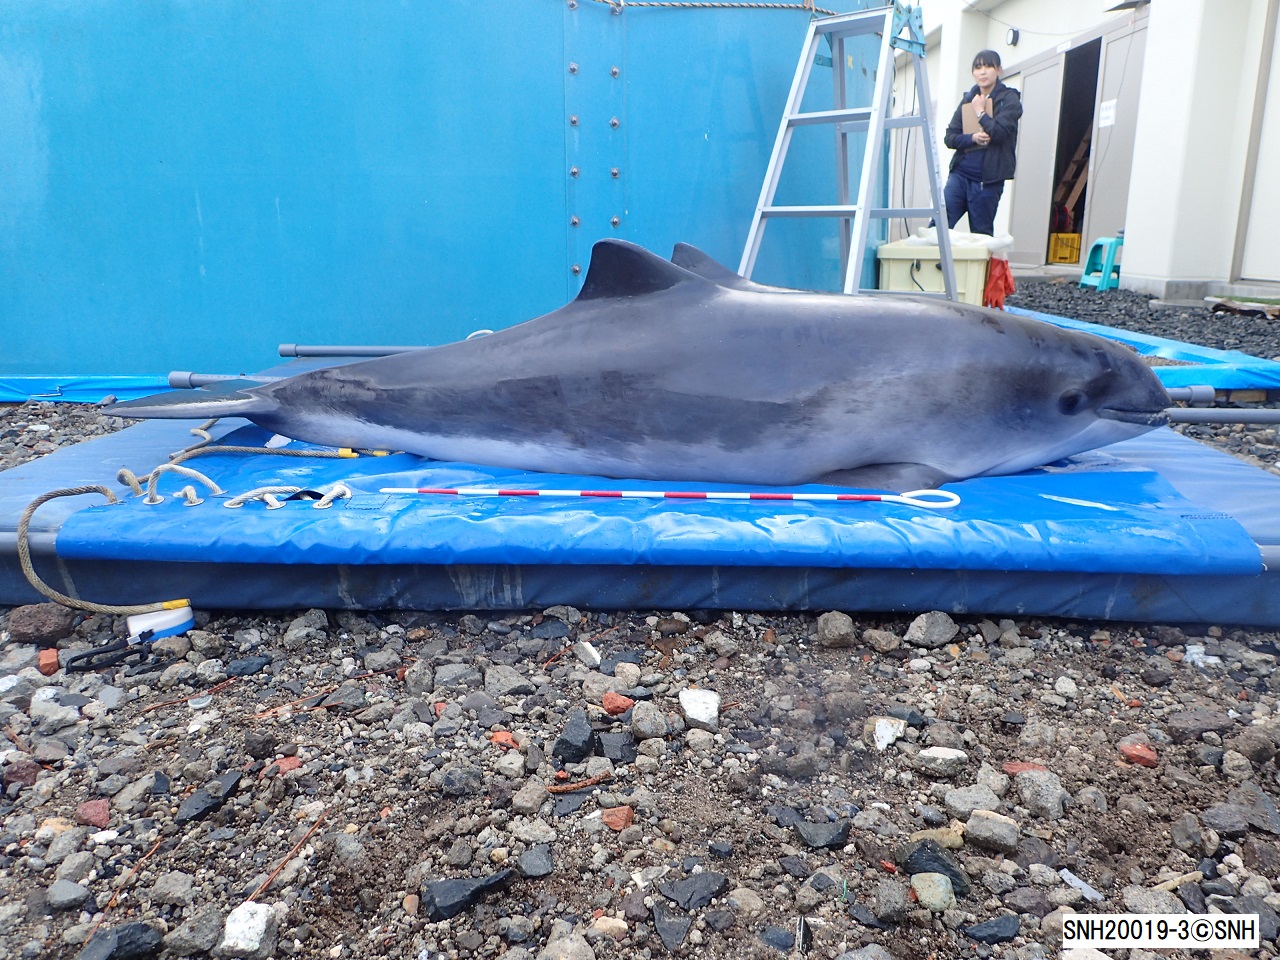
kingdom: Animalia
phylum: Chordata
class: Mammalia
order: Cetacea
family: Phocoenidae
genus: Phocoena
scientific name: Phocoena phocoena
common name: Harbour porpoise
